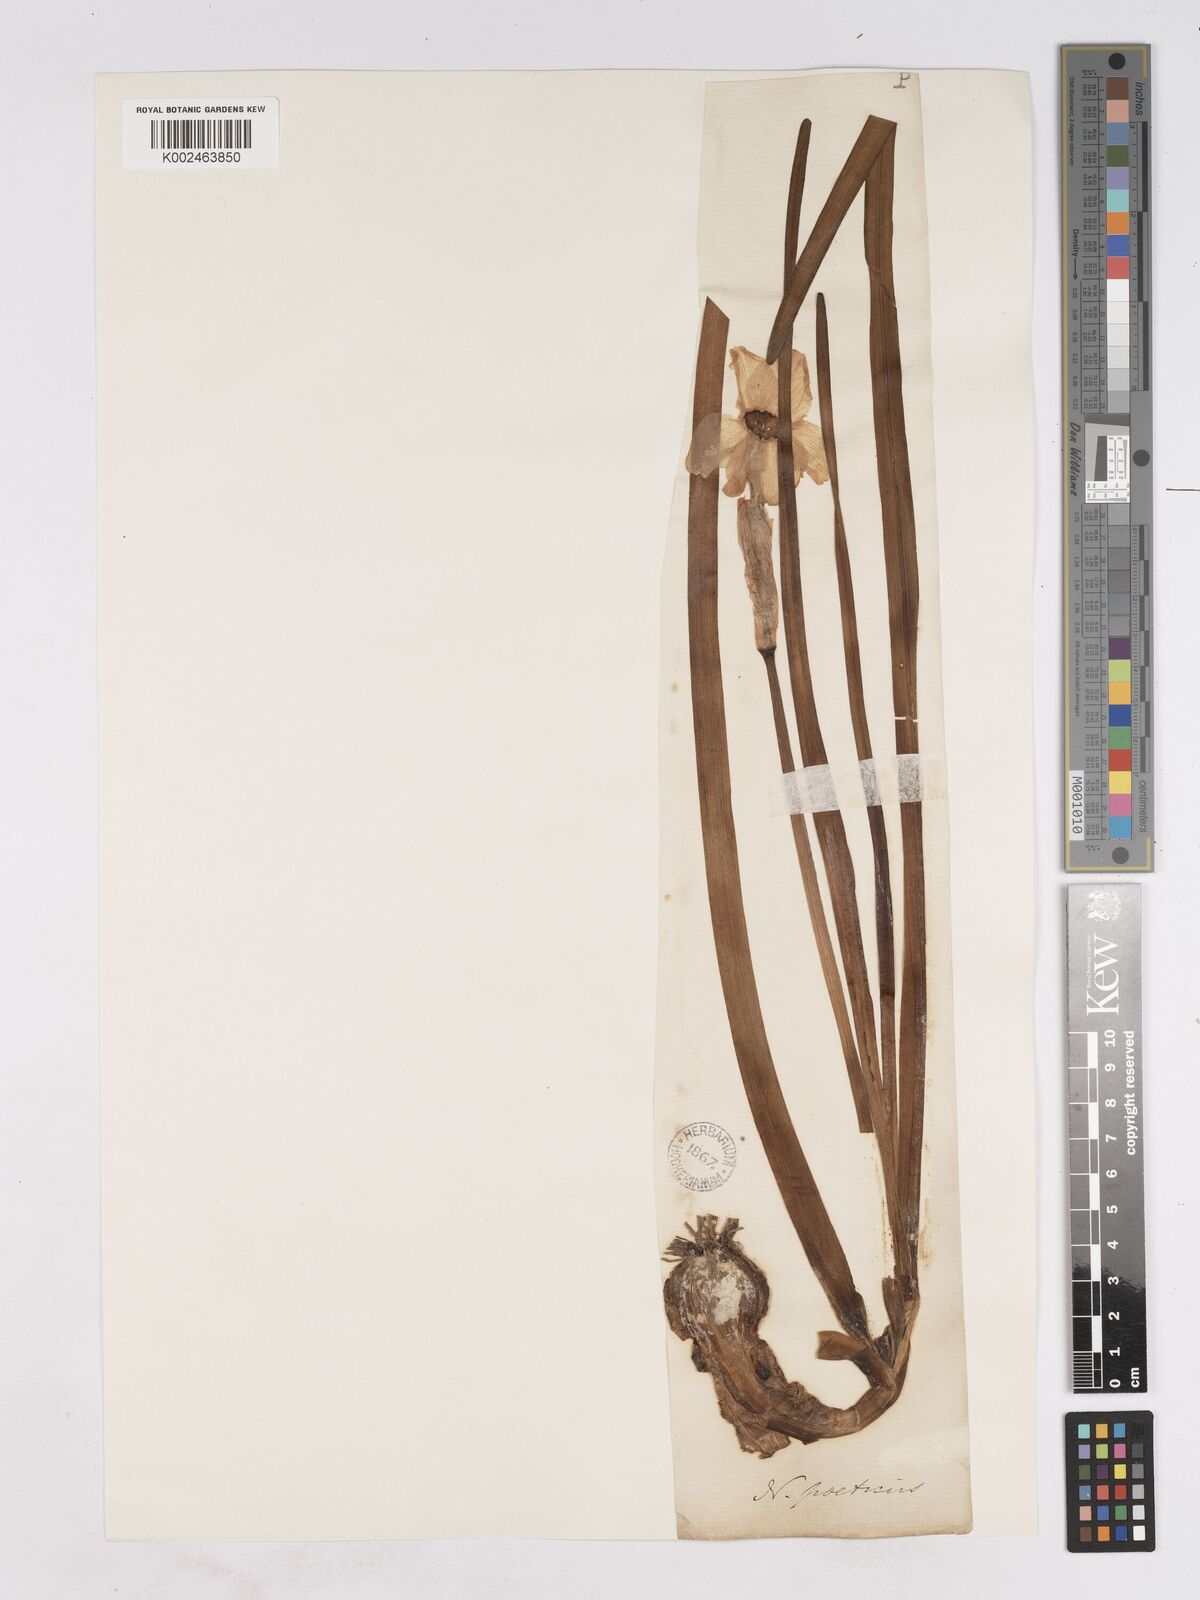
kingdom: Plantae
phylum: Tracheophyta
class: Liliopsida
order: Asparagales
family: Amaryllidaceae
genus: Narcissus
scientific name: Narcissus poeticus
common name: Pheasant's-eye daffodil
